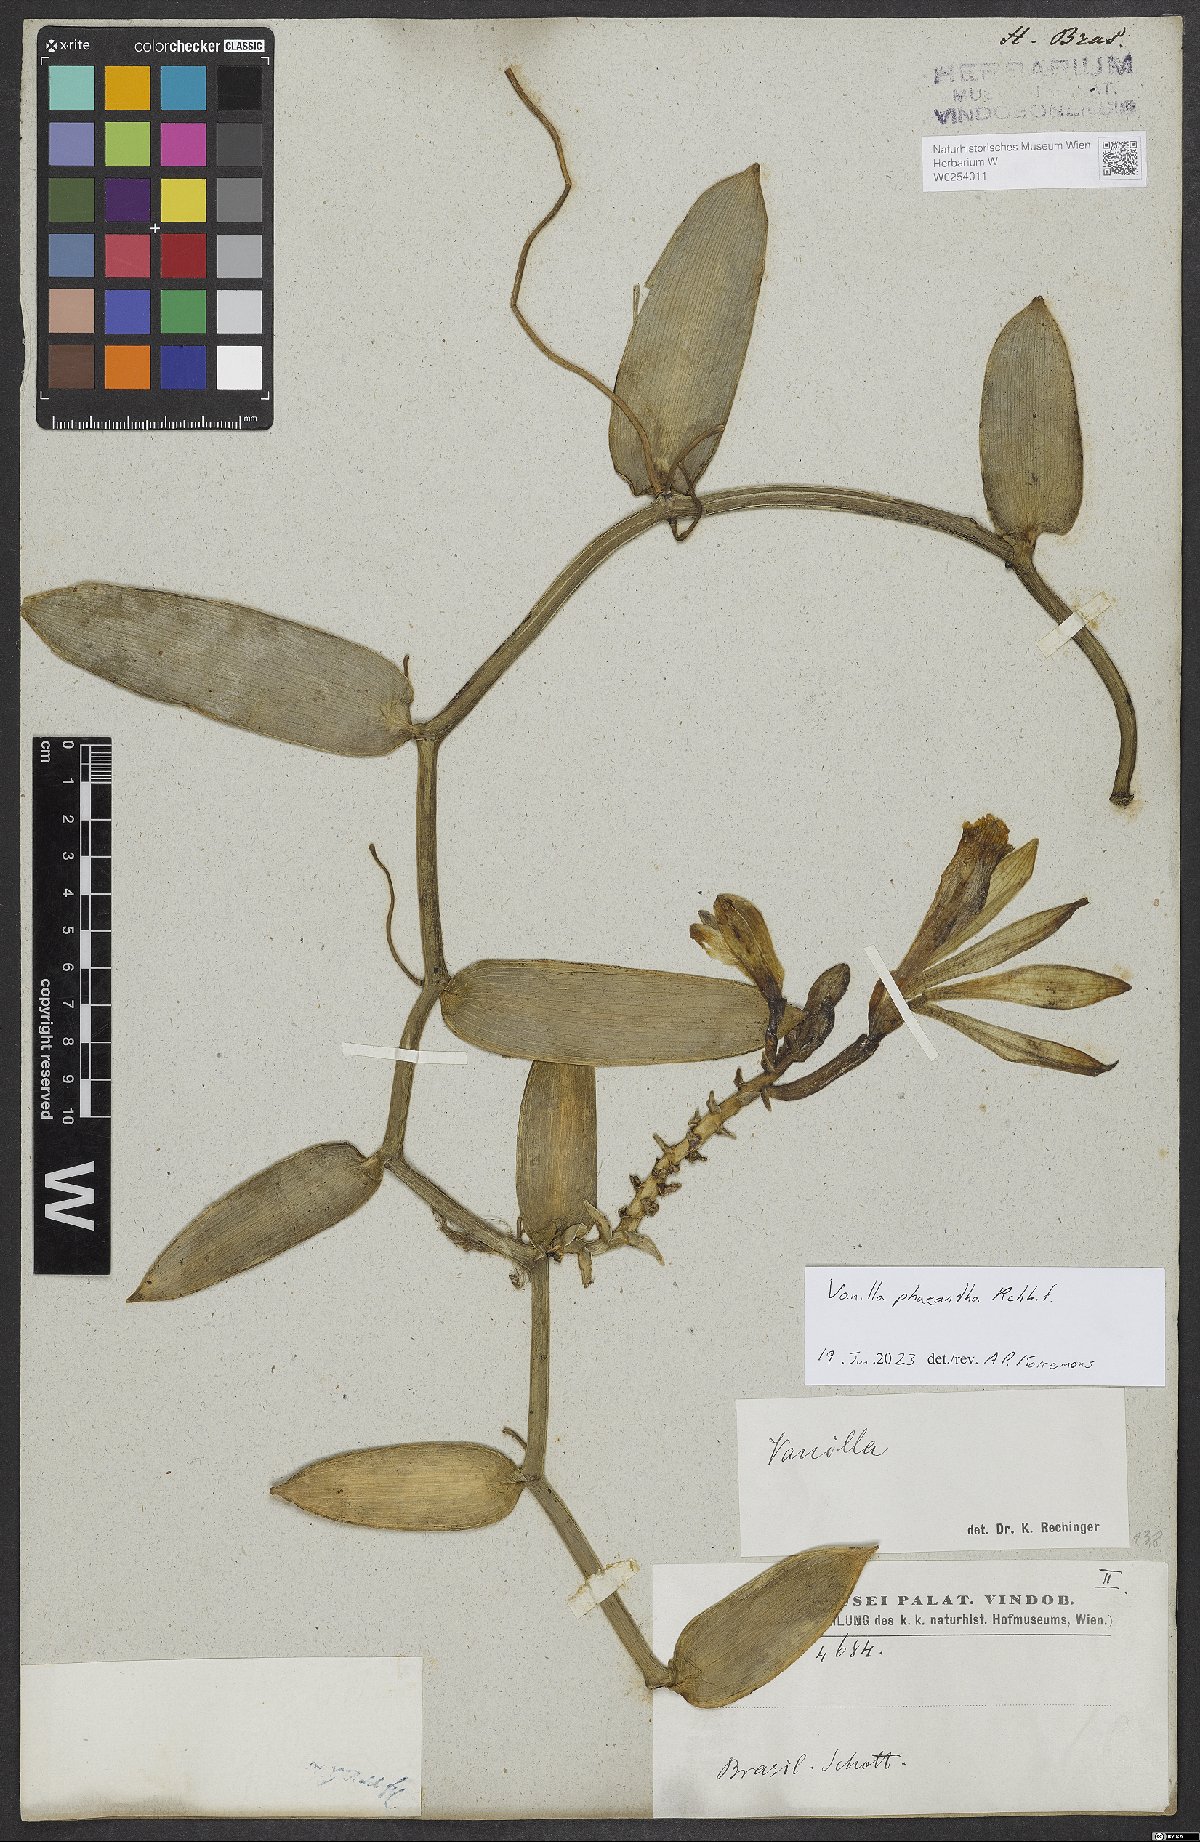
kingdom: Plantae
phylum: Tracheophyta
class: Liliopsida
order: Asparagales
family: Orchidaceae
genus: Vanilla
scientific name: Vanilla phaeantha
